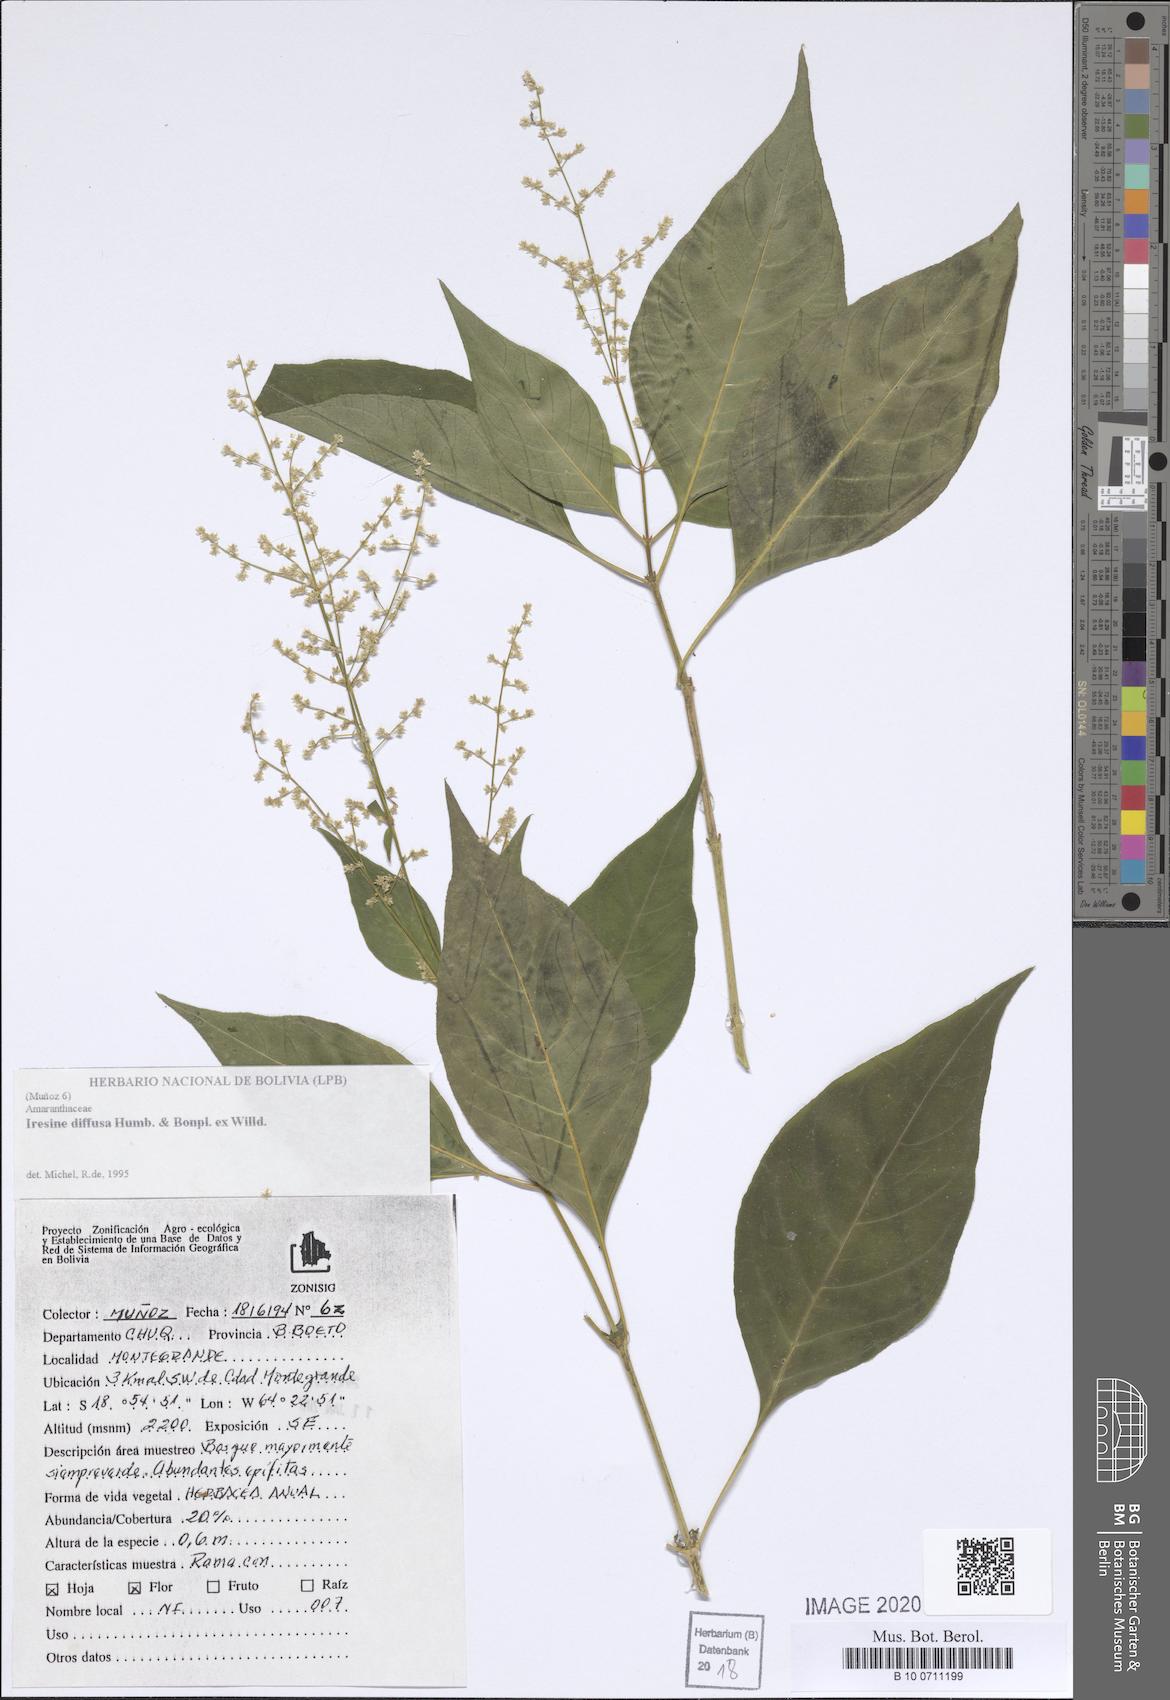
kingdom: Plantae
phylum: Tracheophyta
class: Magnoliopsida
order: Caryophyllales
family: Amaranthaceae
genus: Iresine
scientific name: Iresine diffusa
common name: Juba's-bush
